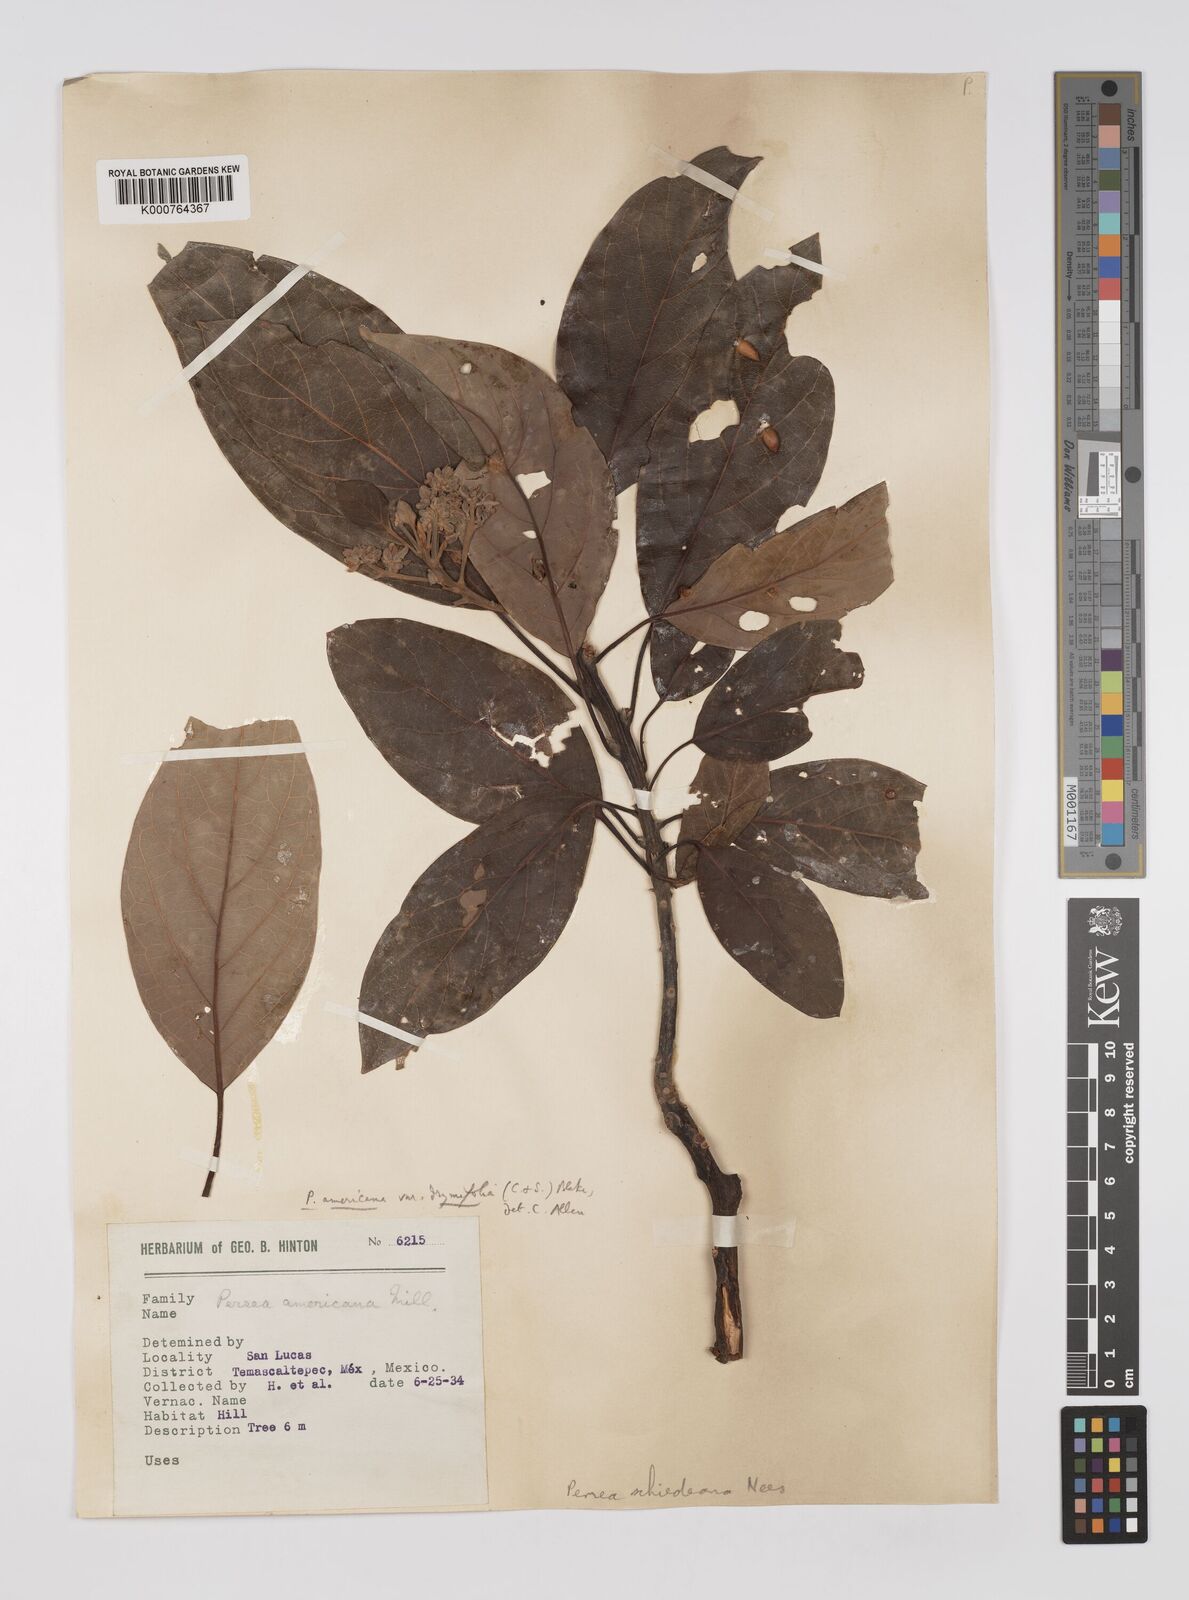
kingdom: Plantae
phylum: Tracheophyta
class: Magnoliopsida
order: Laurales
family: Lauraceae
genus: Persea
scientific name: Persea americana
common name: Avocado
